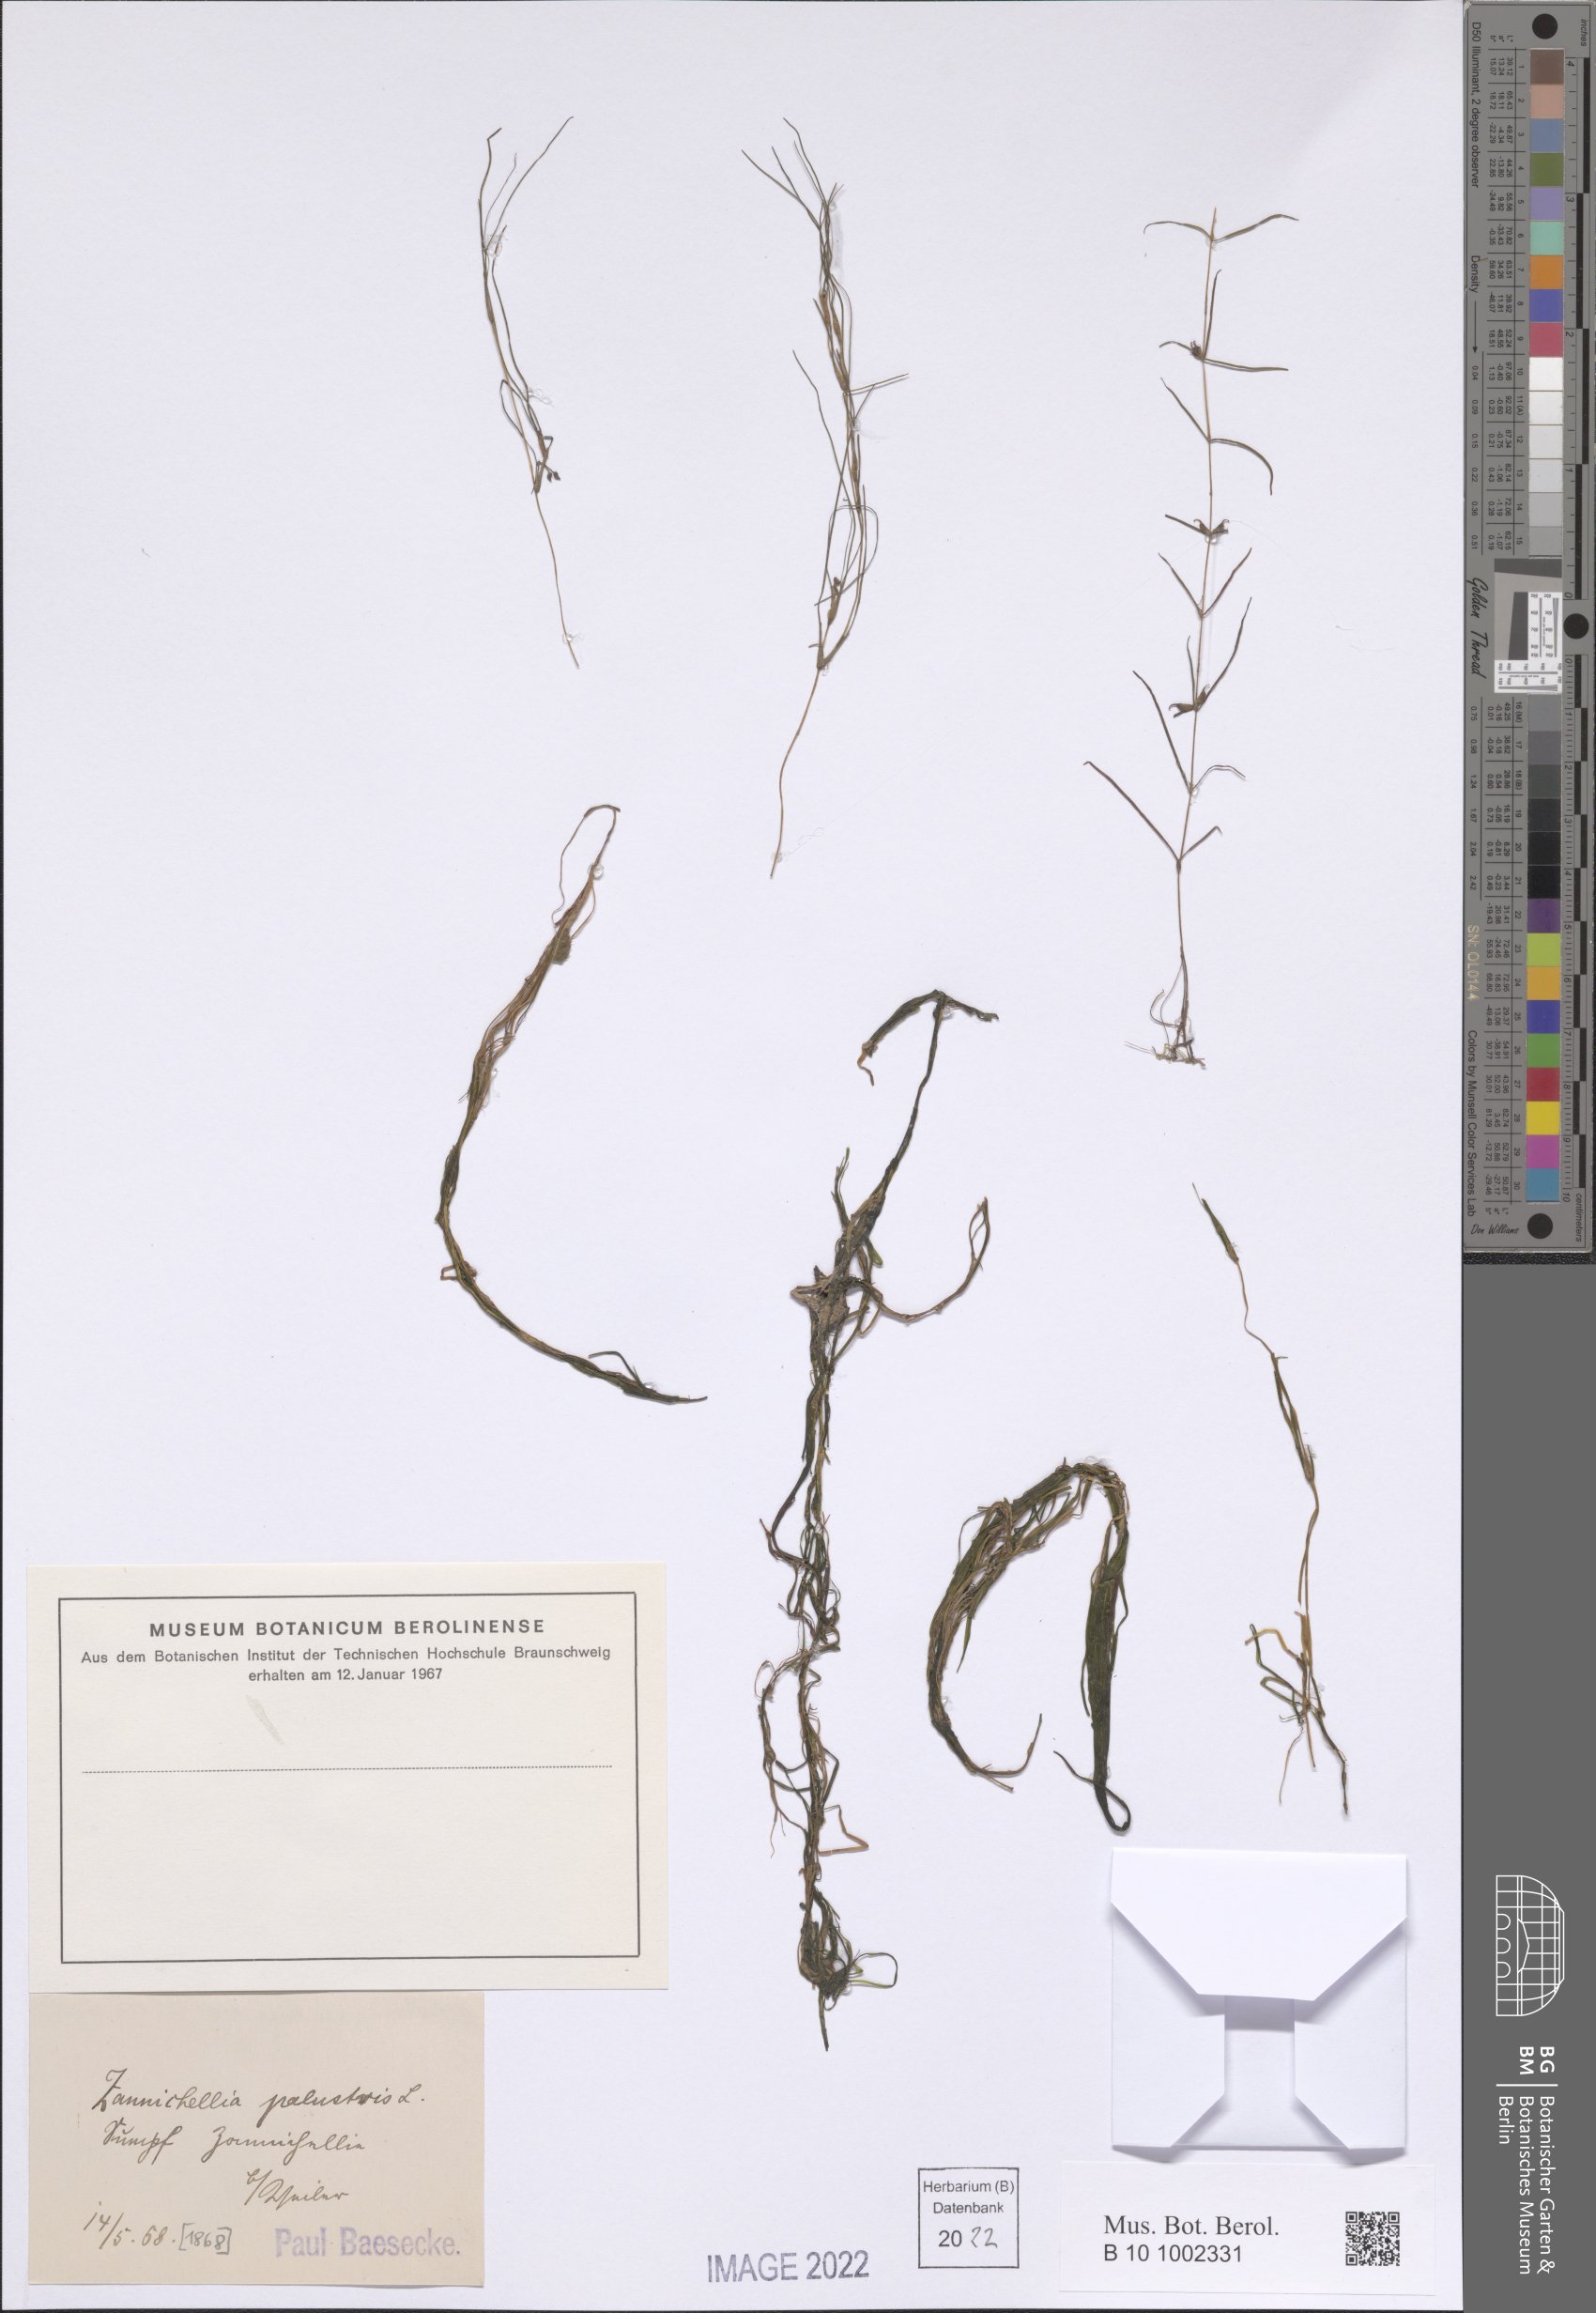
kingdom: Plantae
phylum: Tracheophyta
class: Liliopsida
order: Alismatales
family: Potamogetonaceae
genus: Zannichellia
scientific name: Zannichellia palustris
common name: Horned pondweed
